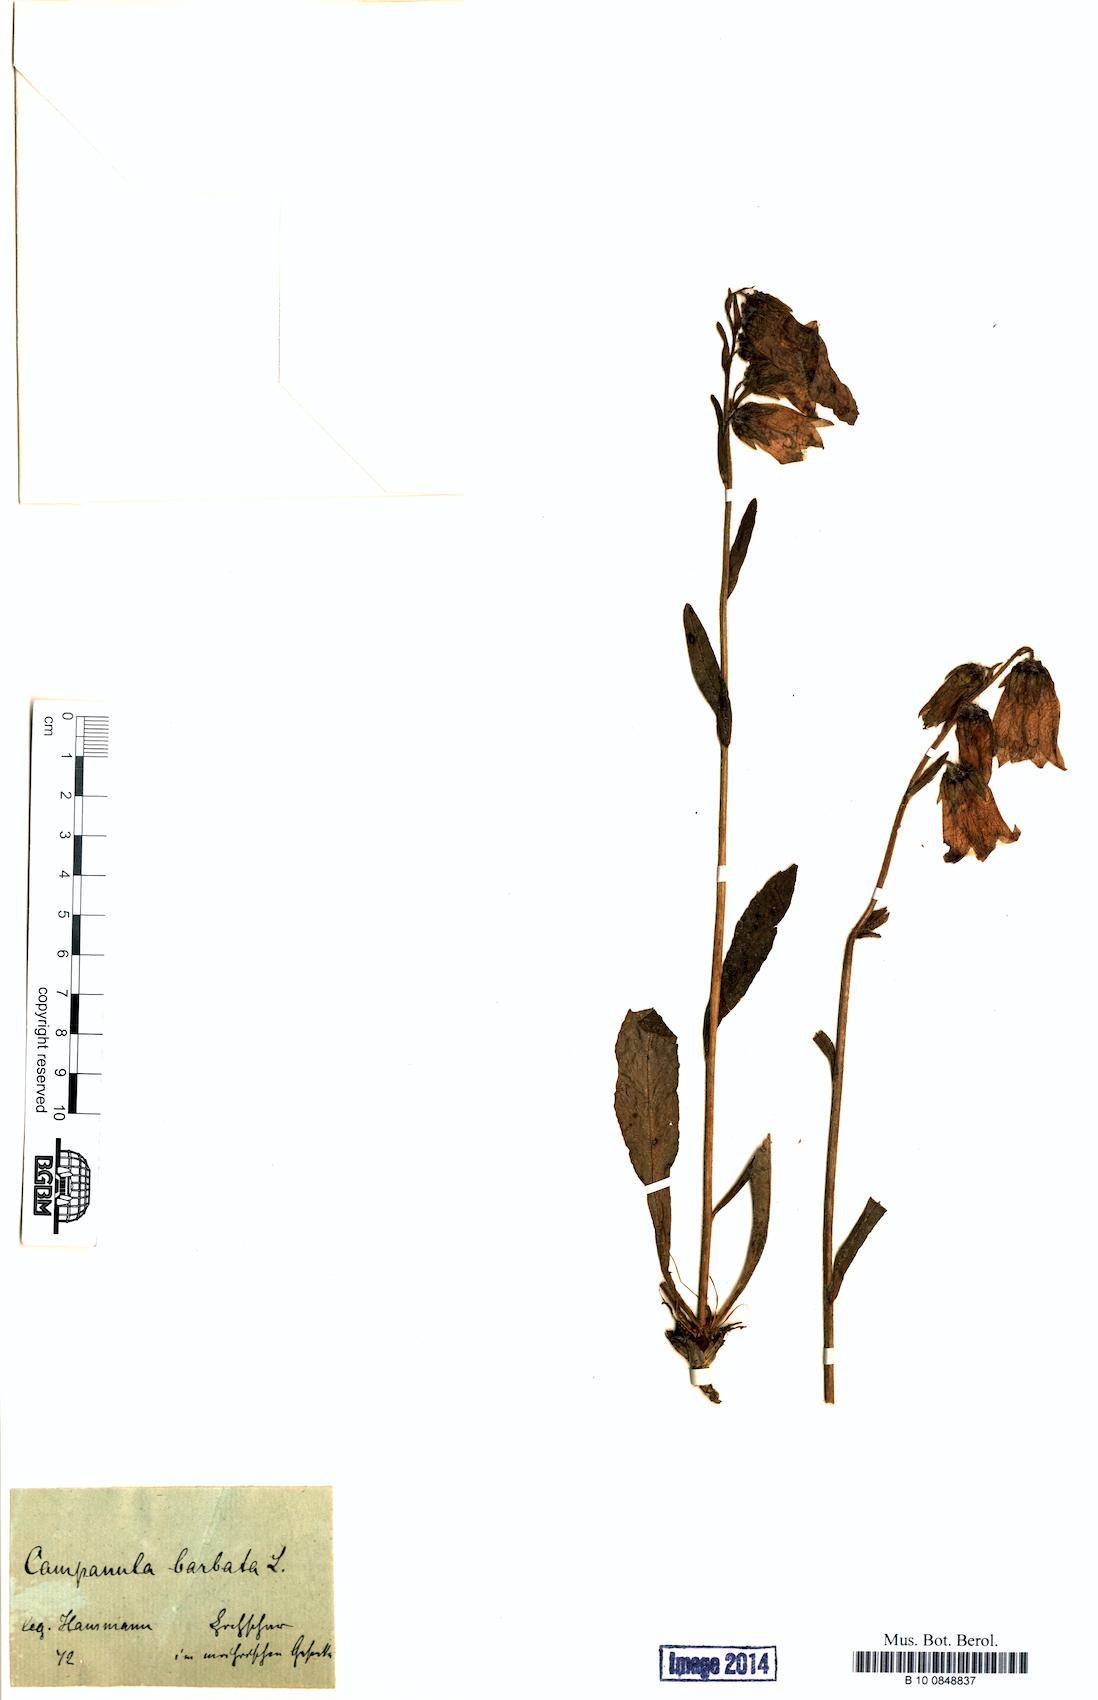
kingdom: Plantae
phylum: Tracheophyta
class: Magnoliopsida
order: Asterales
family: Campanulaceae
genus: Campanula
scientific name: Campanula barbata
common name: Bearded bellflower
